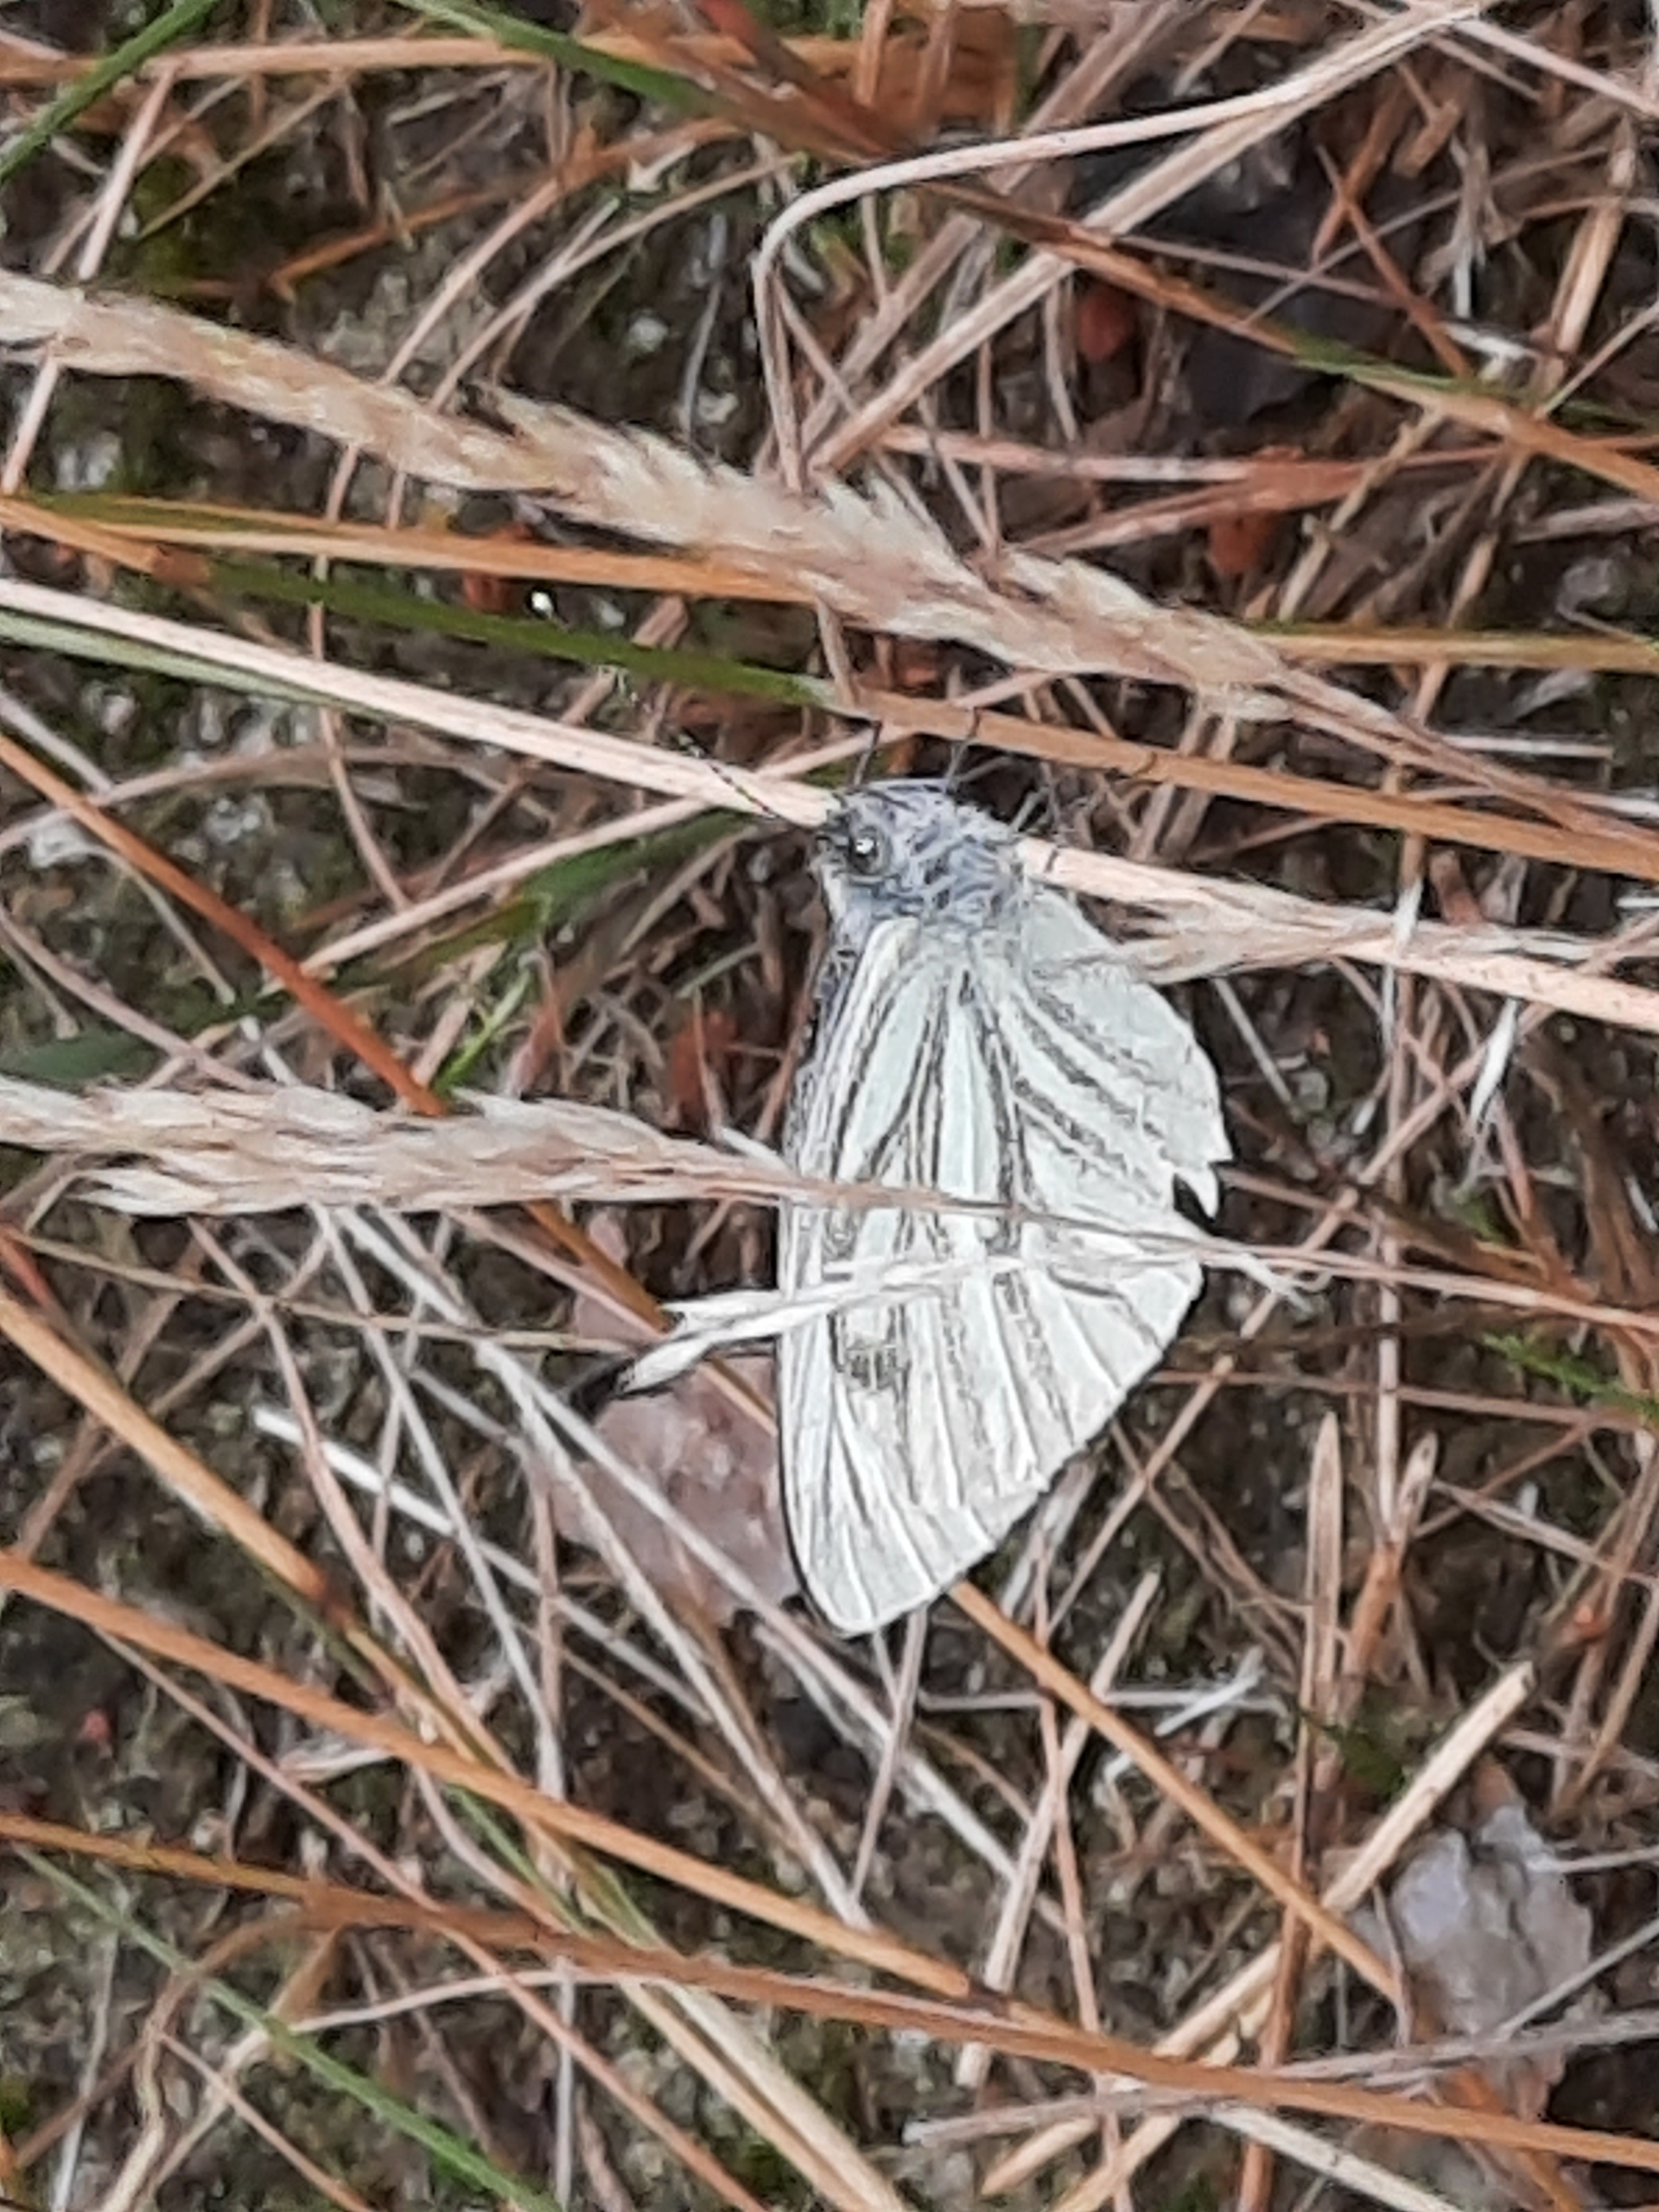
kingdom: Animalia
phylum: Arthropoda
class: Insecta
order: Lepidoptera
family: Pieridae
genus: Pieris
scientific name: Pieris napi
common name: Grønåret kålsommerfugl
